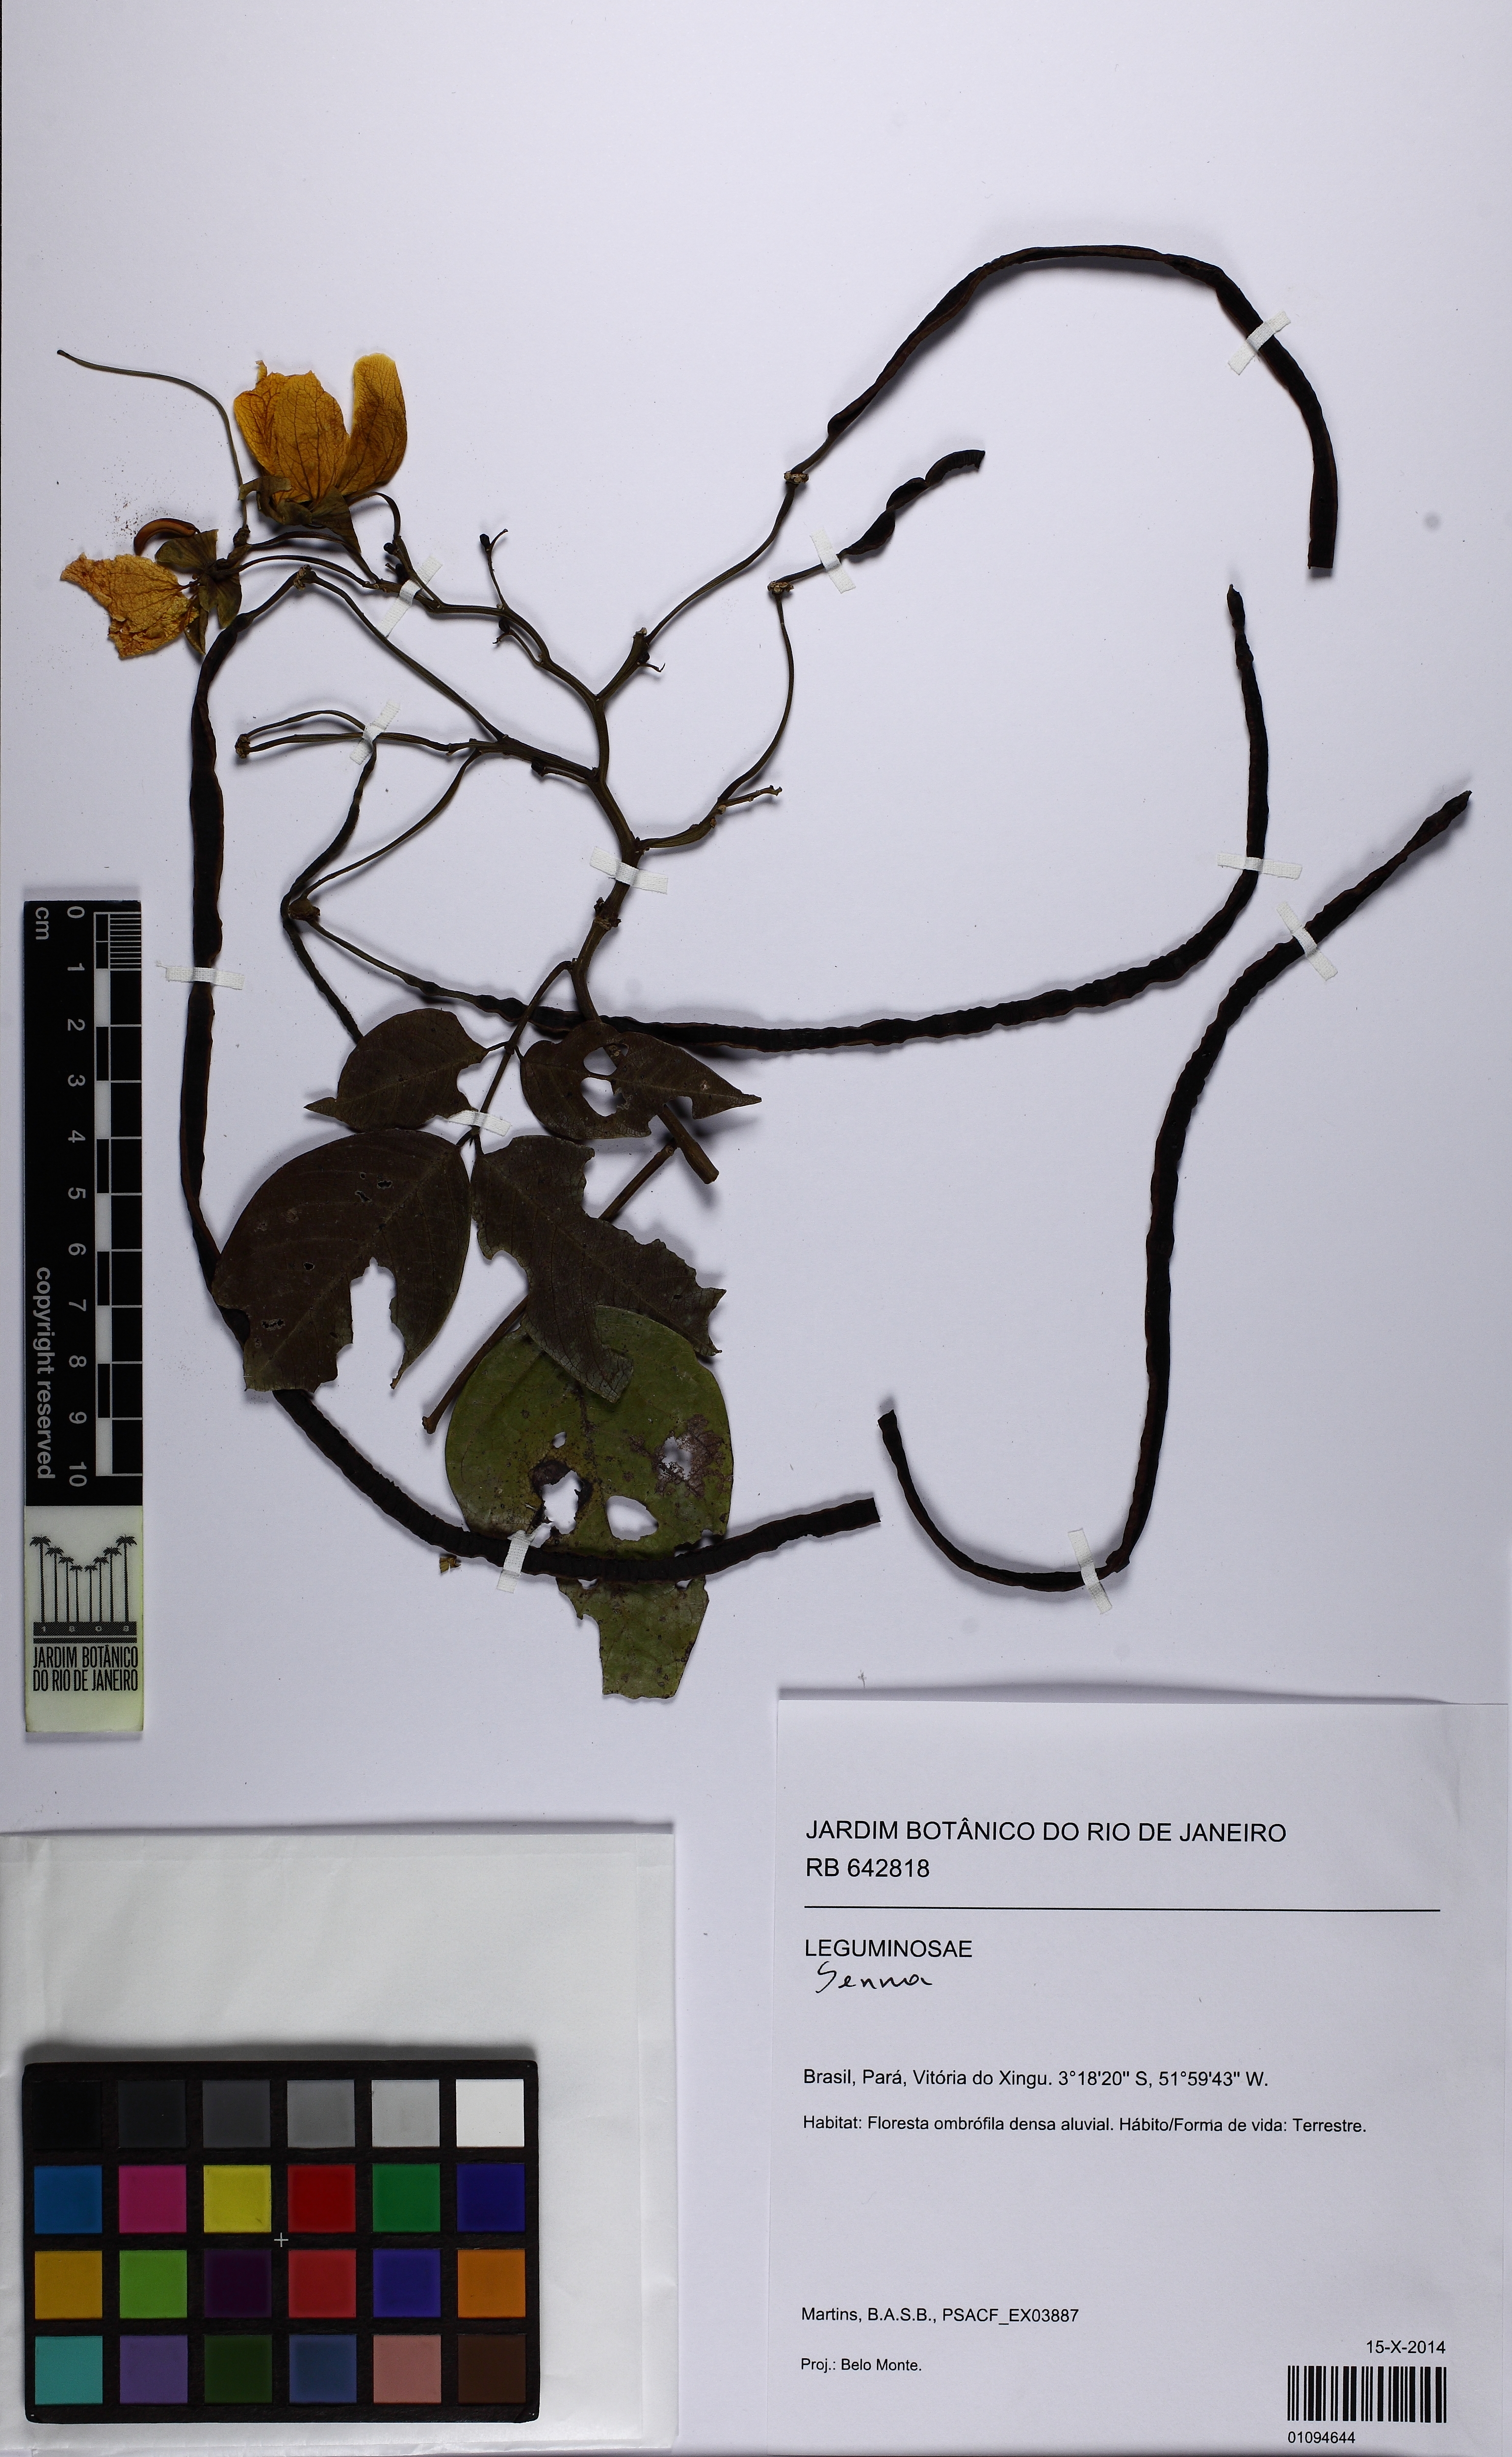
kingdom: Plantae
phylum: Tracheophyta
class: Magnoliopsida
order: Fabales
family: Fabaceae
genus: Senna
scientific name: Senna georgica
